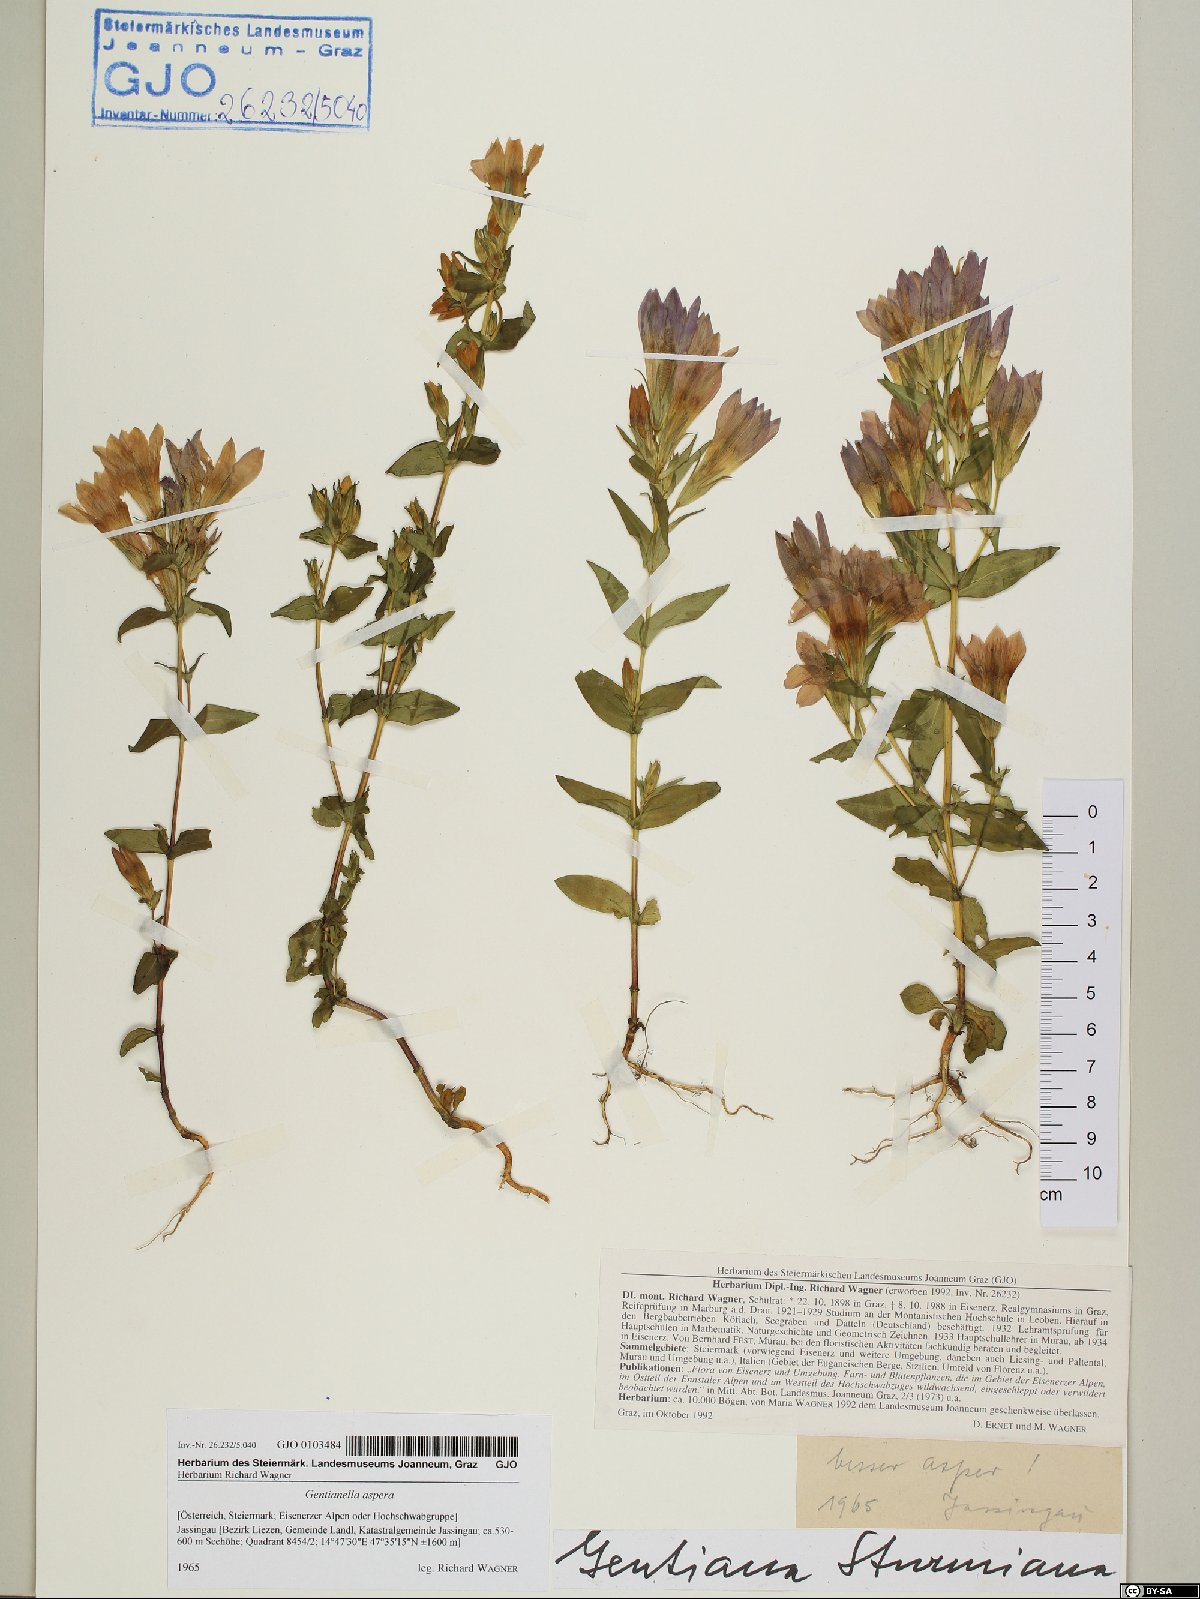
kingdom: Plantae
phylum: Tracheophyta
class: Magnoliopsida
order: Gentianales
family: Gentianaceae
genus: Gentianella
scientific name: Gentianella obtusifolia
